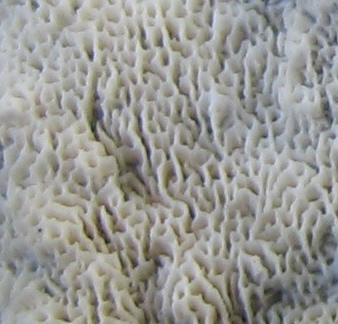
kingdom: Fungi
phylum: Basidiomycota
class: Agaricomycetes
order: Hymenochaetales
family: Schizoporaceae
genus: Schizopora
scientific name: Schizopora paradoxa
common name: hvid tandsvamp
